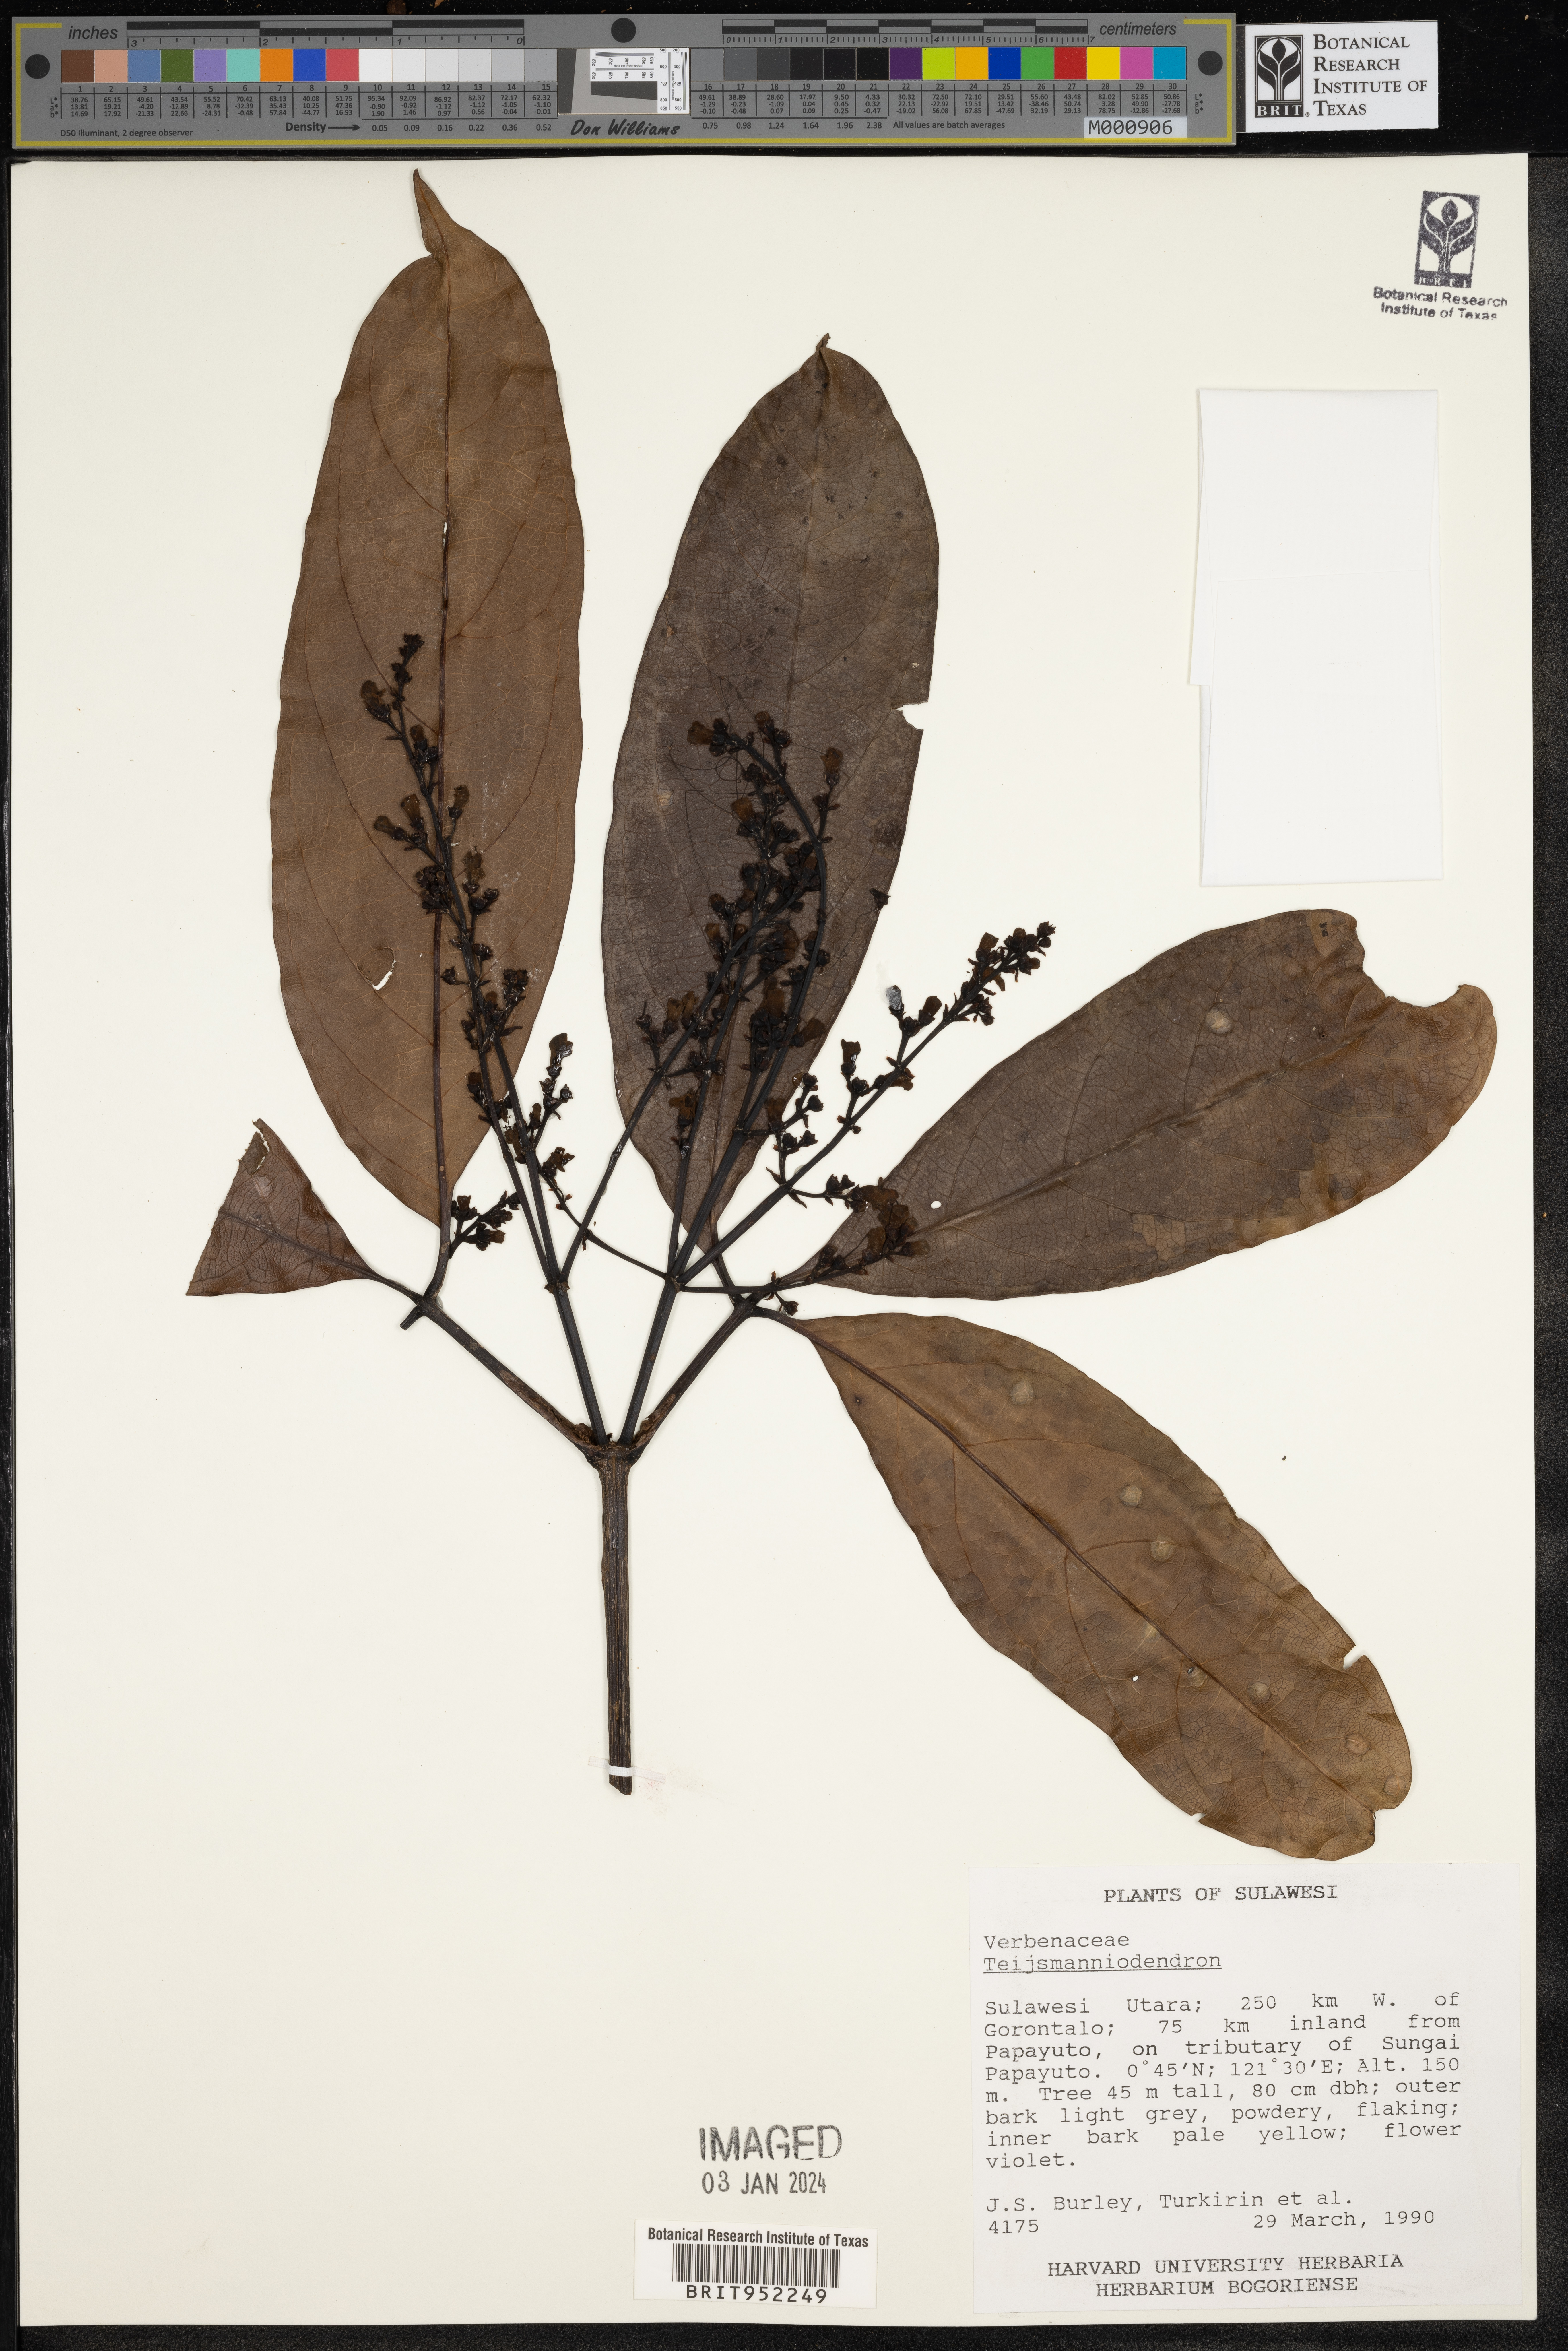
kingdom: Plantae
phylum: Tracheophyta
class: Magnoliopsida
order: Lamiales
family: Lamiaceae
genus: Teijsmanniodendron
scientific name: Teijsmanniodendron
